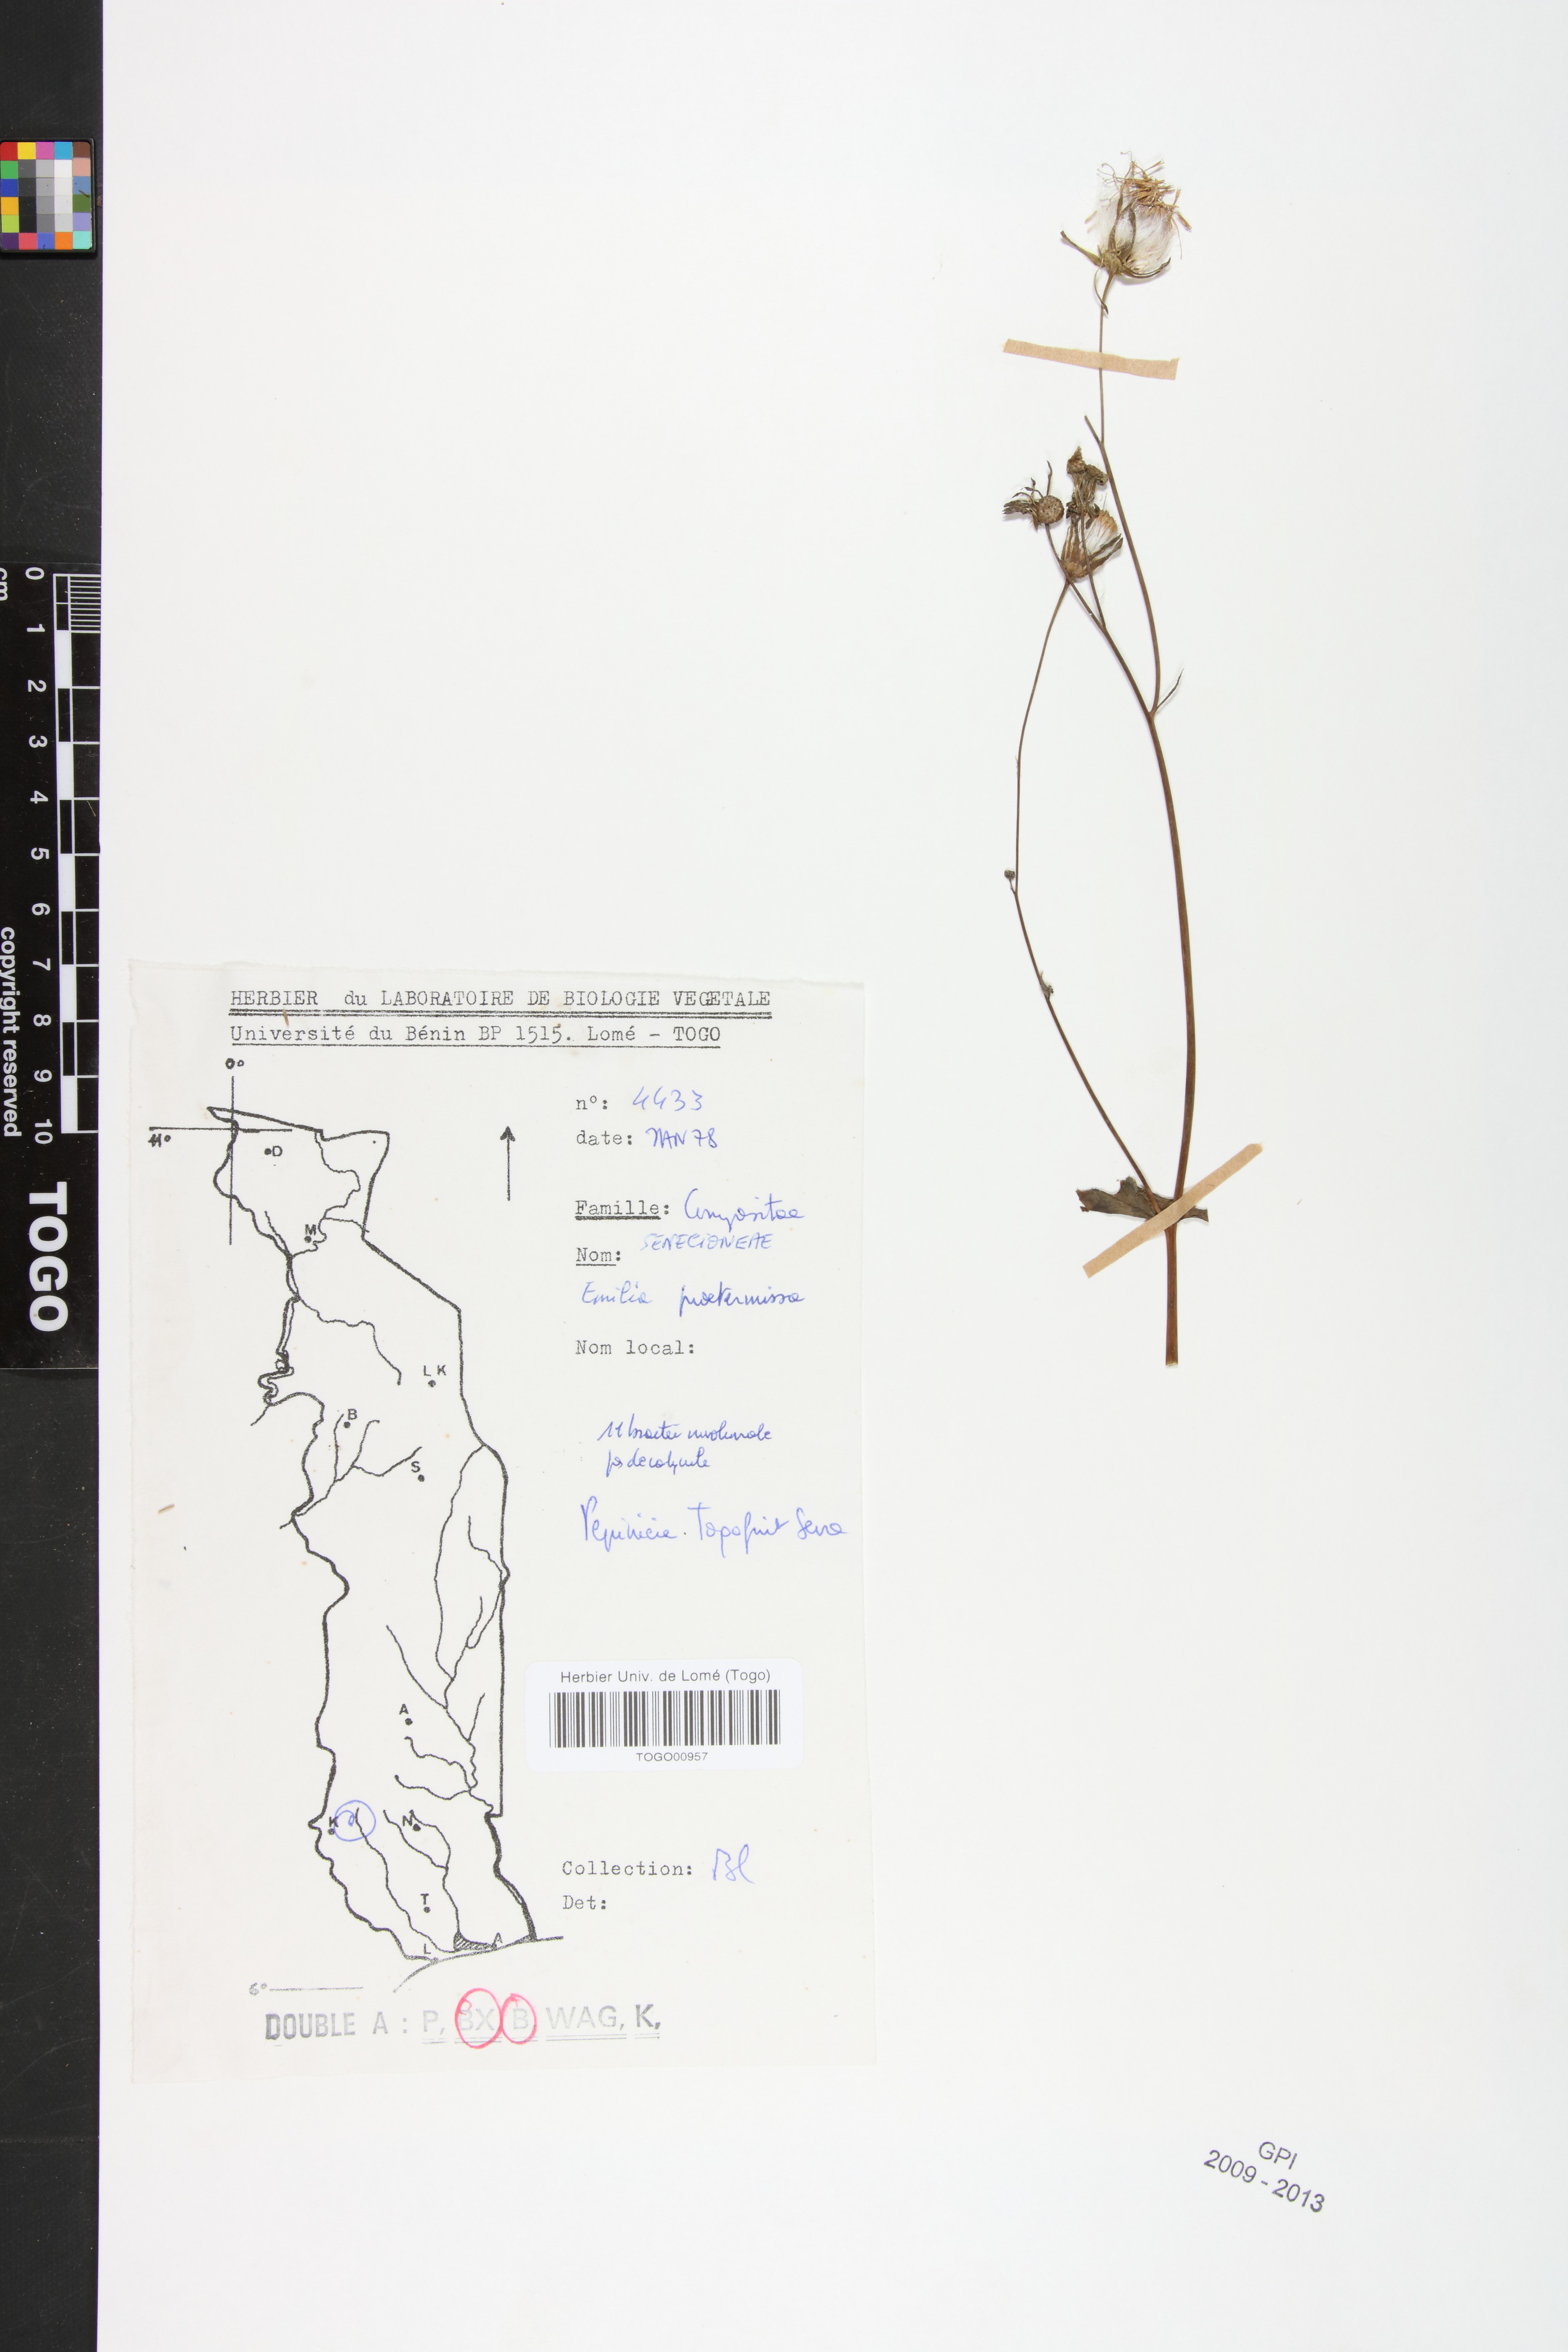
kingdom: Plantae
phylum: Tracheophyta
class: Magnoliopsida
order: Asterales
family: Asteraceae
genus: Emilia
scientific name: Emilia praetermissa
